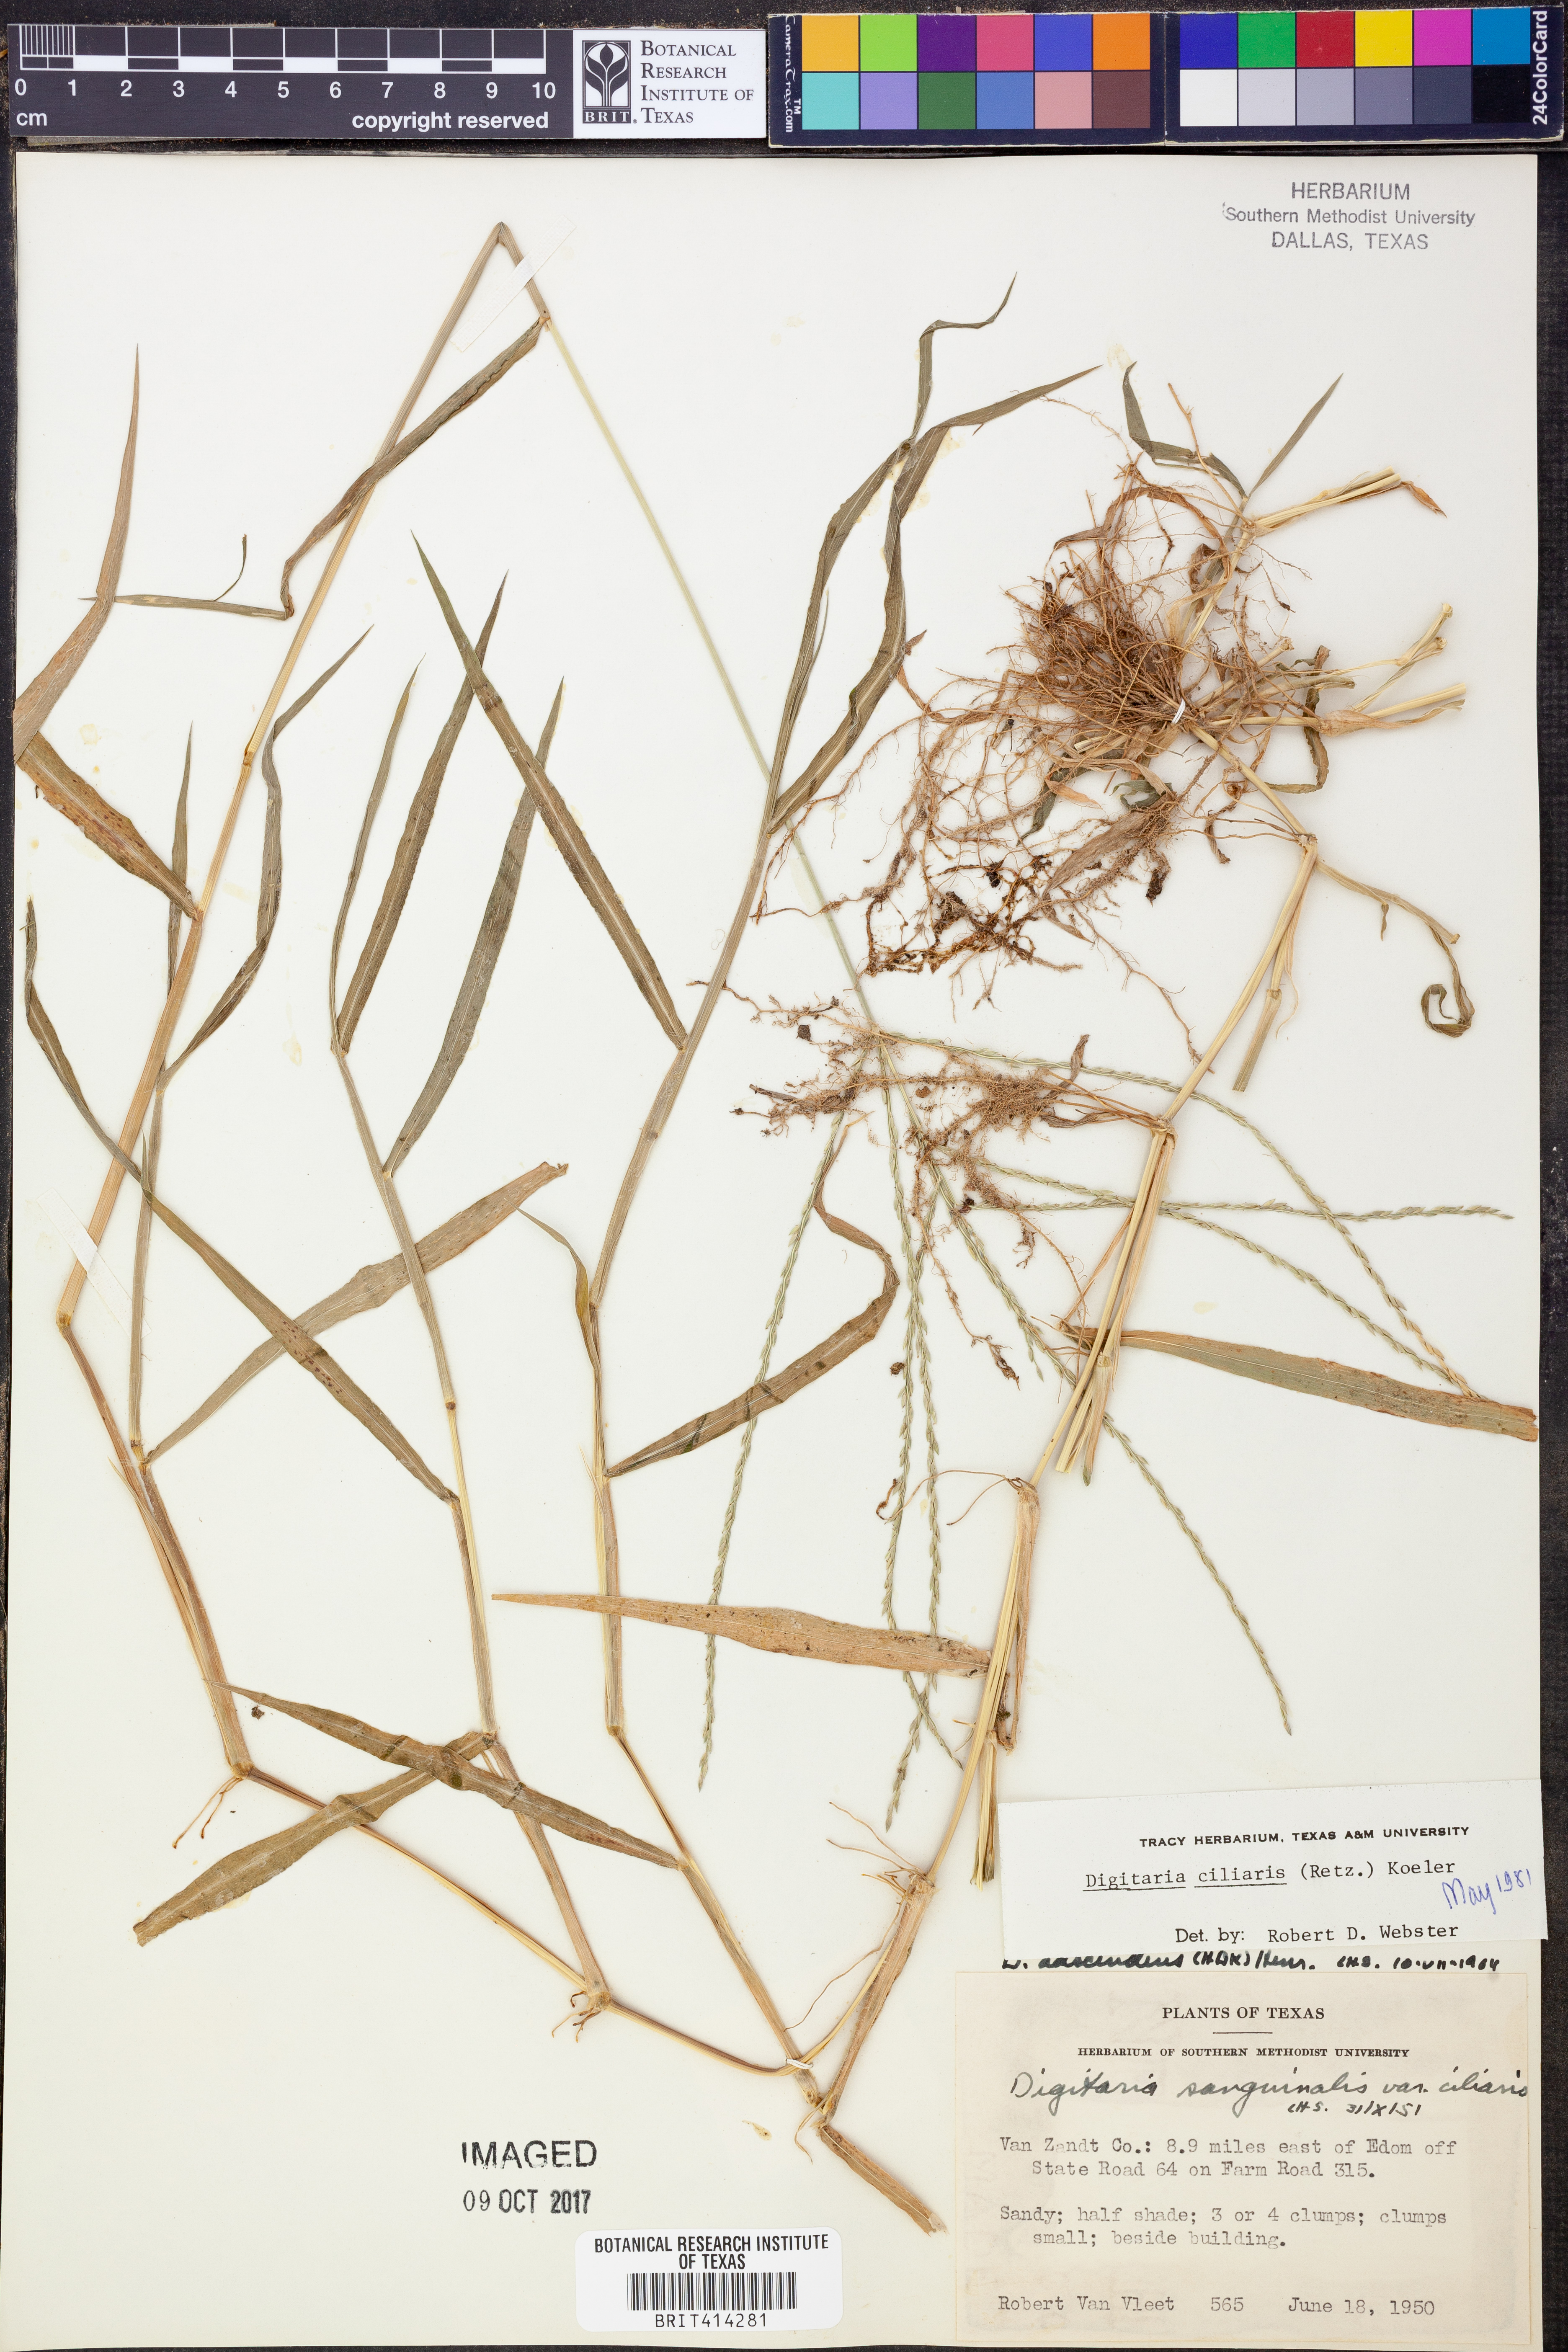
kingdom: Plantae
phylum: Tracheophyta
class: Liliopsida
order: Poales
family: Poaceae
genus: Digitaria
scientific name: Digitaria ciliaris
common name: Tropical finger-grass
